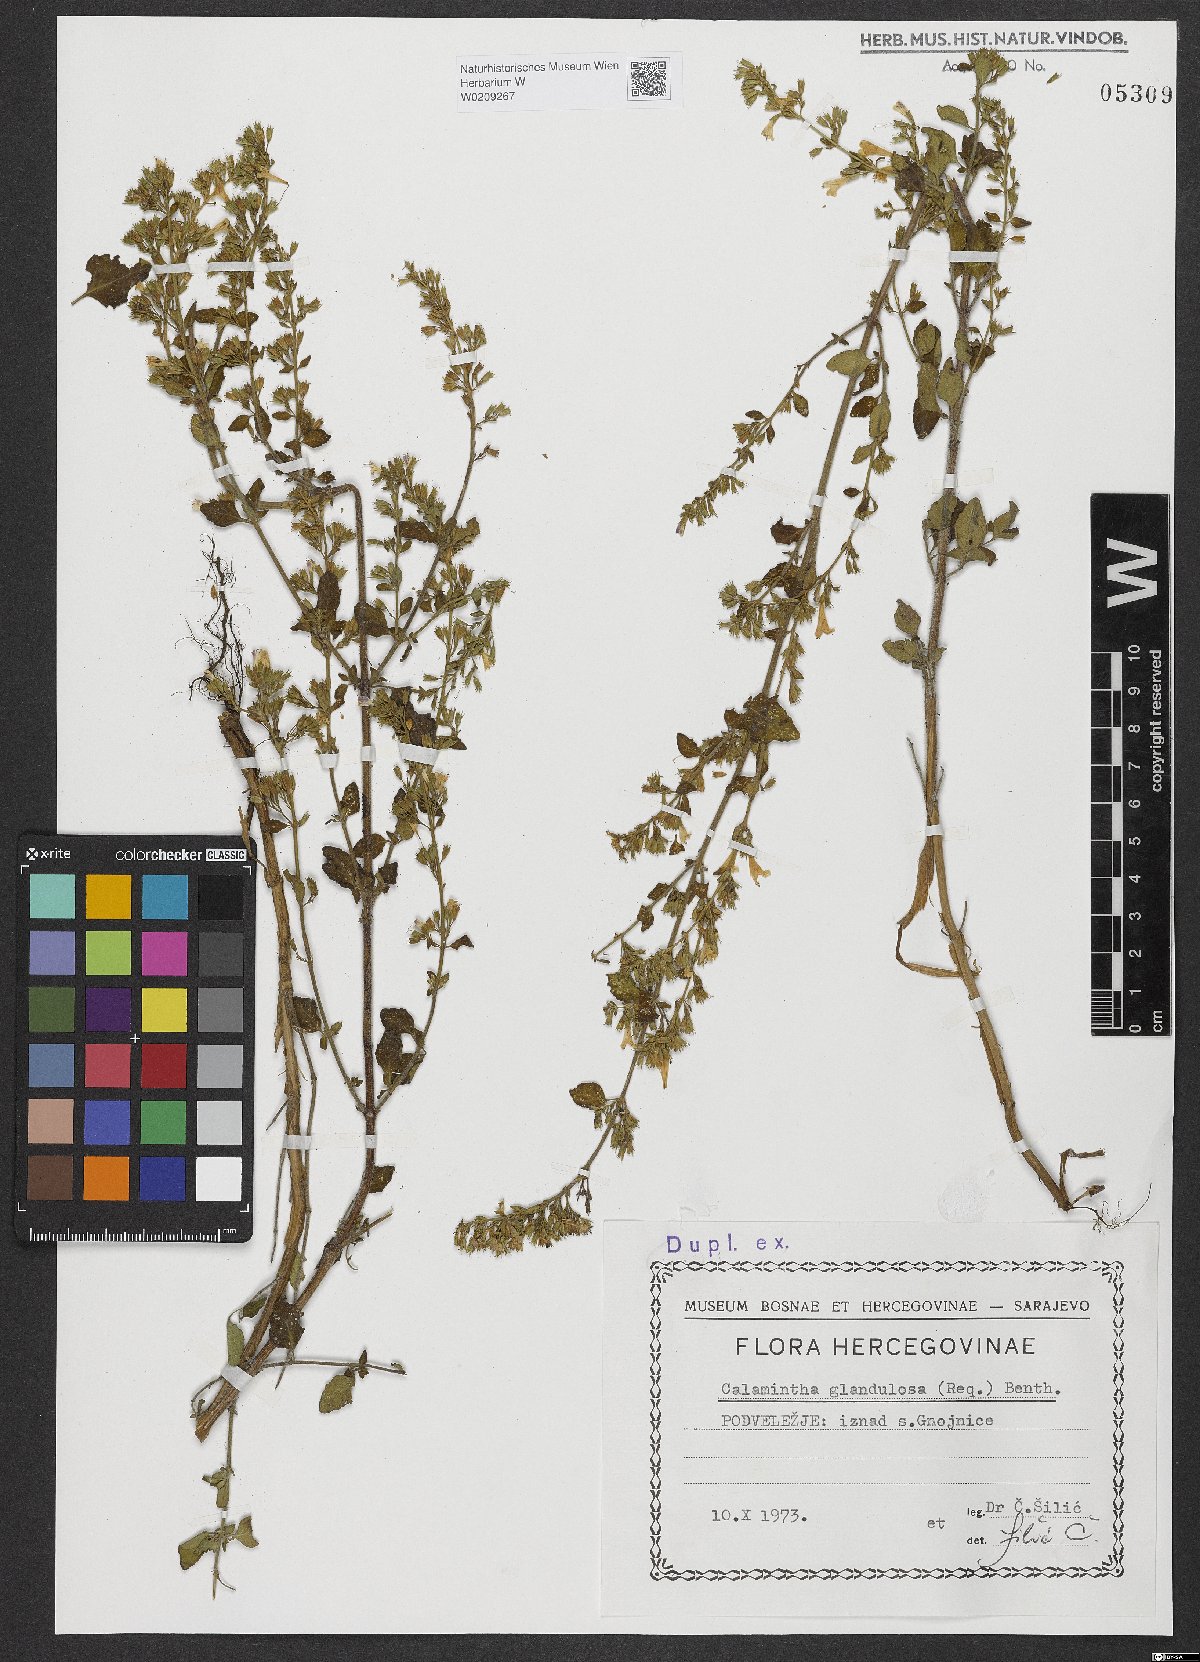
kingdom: Plantae
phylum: Tracheophyta
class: Magnoliopsida
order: Lamiales
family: Lamiaceae
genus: Clinopodium
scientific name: Clinopodium nepeta
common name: Lesser calamint
